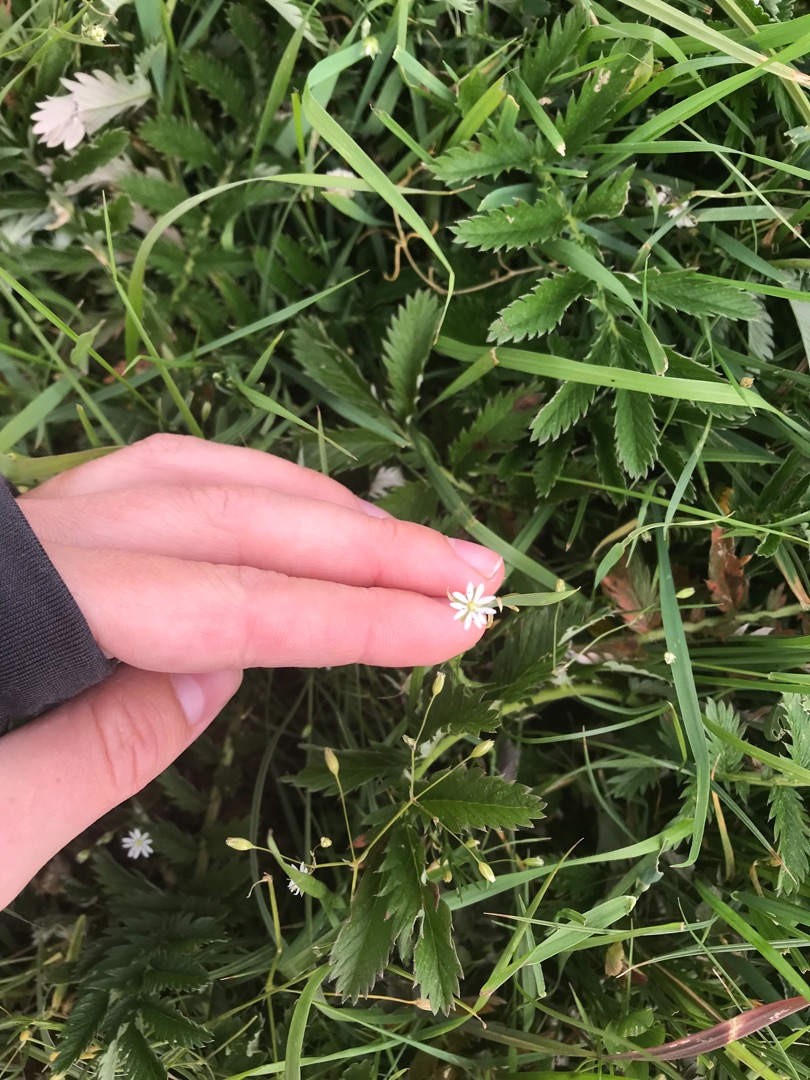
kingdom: Plantae
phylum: Tracheophyta
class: Magnoliopsida
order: Caryophyllales
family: Caryophyllaceae
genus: Stellaria
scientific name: Stellaria graminea
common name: Græsbladet fladstjerne
